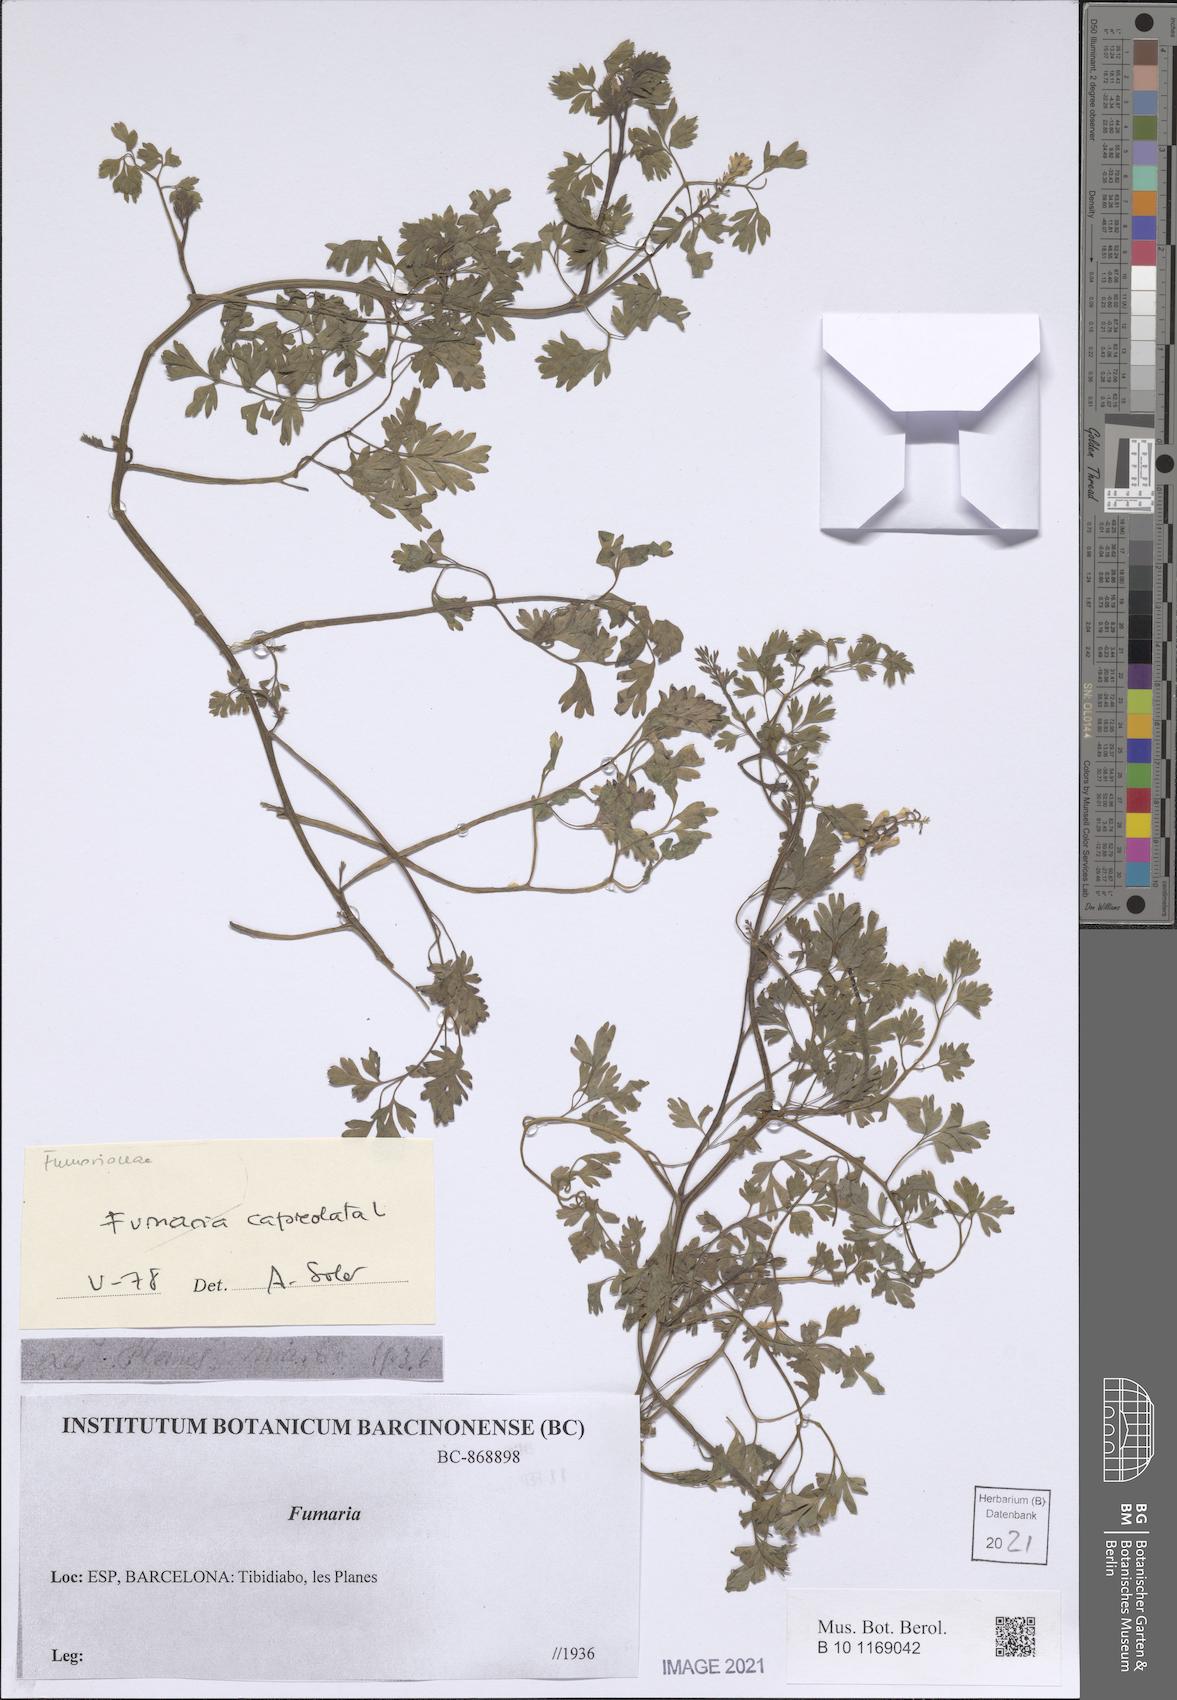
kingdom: Plantae
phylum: Tracheophyta
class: Magnoliopsida
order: Ranunculales
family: Papaveraceae
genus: Fumaria
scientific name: Fumaria capreolata
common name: White ramping-fumitory
